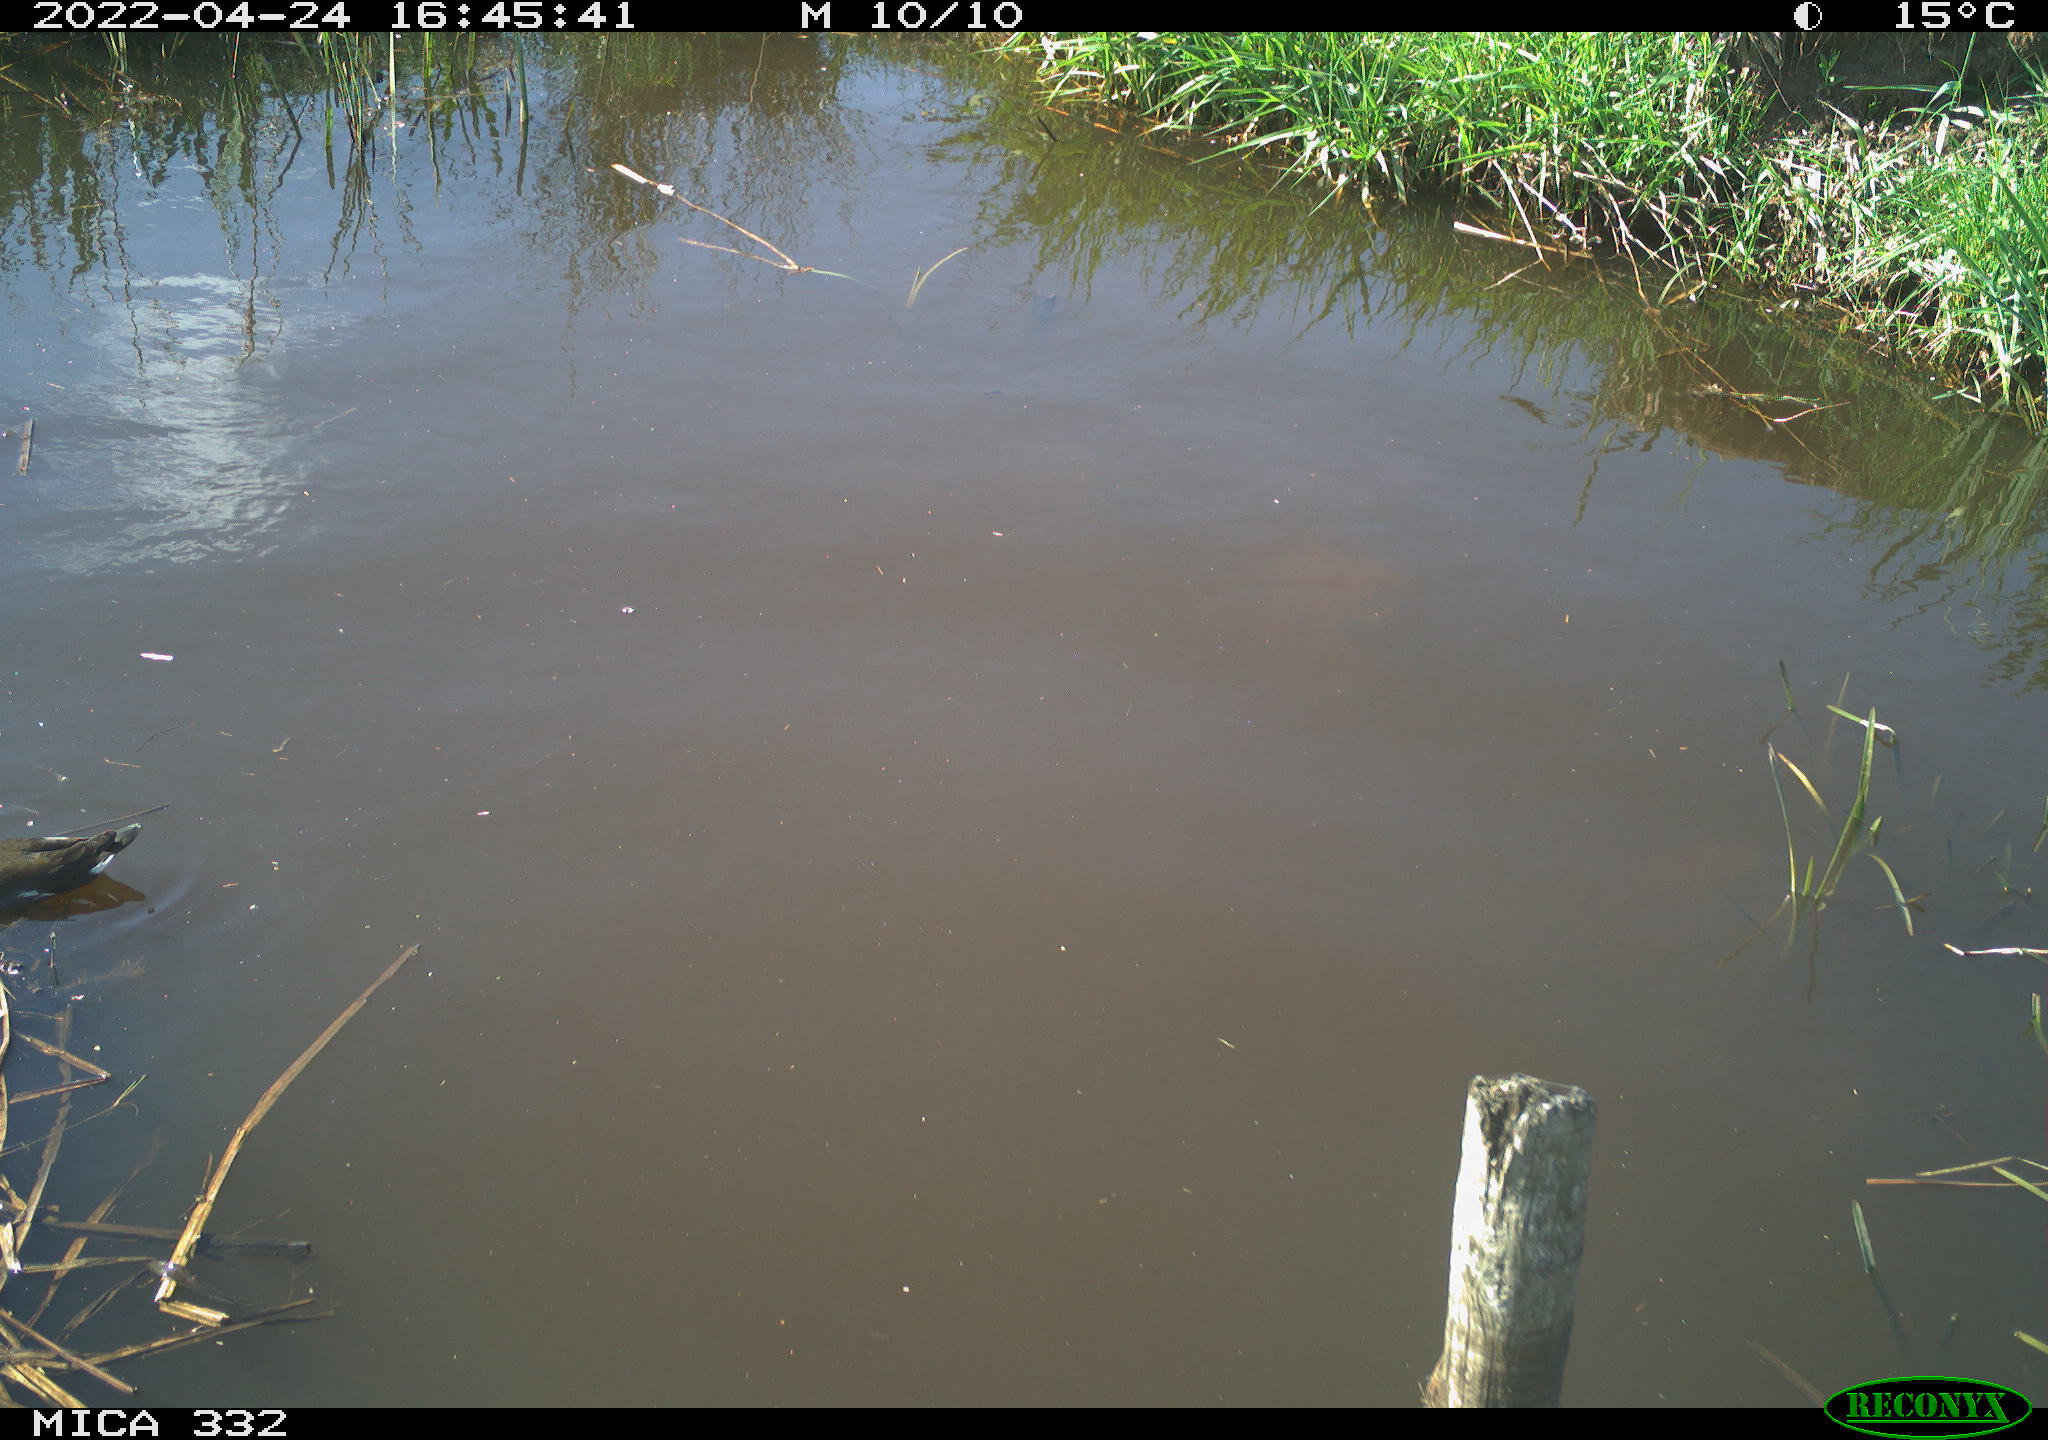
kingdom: Animalia
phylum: Chordata
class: Aves
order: Gruiformes
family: Rallidae
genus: Gallinula
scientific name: Gallinula chloropus
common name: Common moorhen
